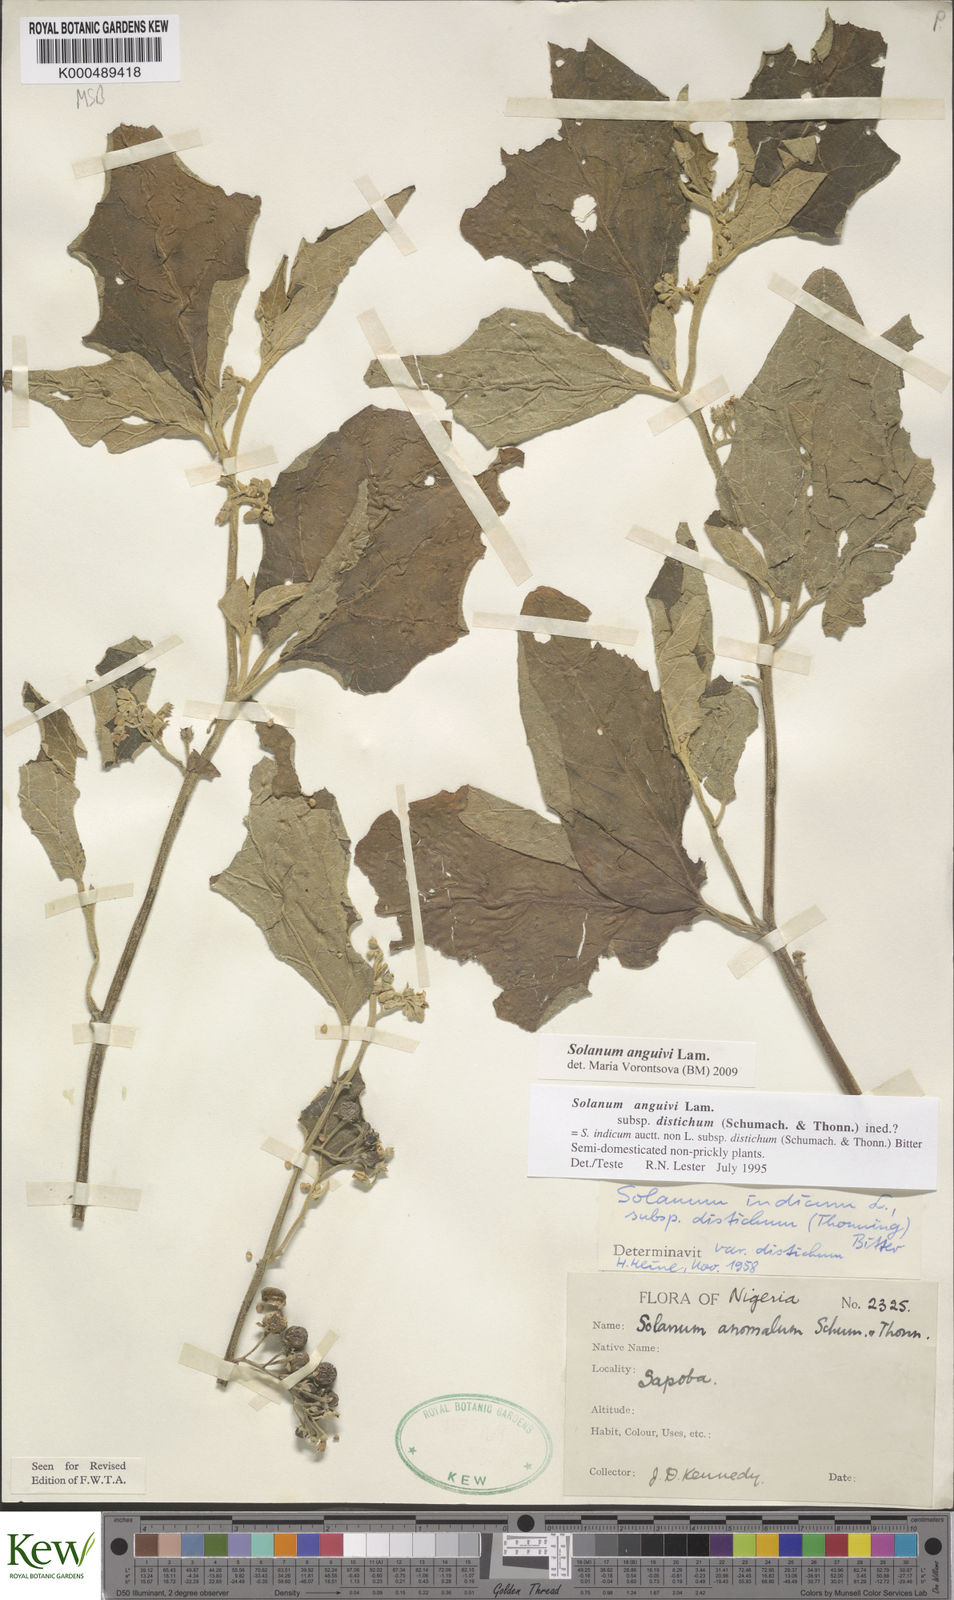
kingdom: Plantae
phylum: Tracheophyta
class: Magnoliopsida
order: Solanales
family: Solanaceae
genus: Solanum
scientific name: Solanum anguivi
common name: Forest bitterberry
